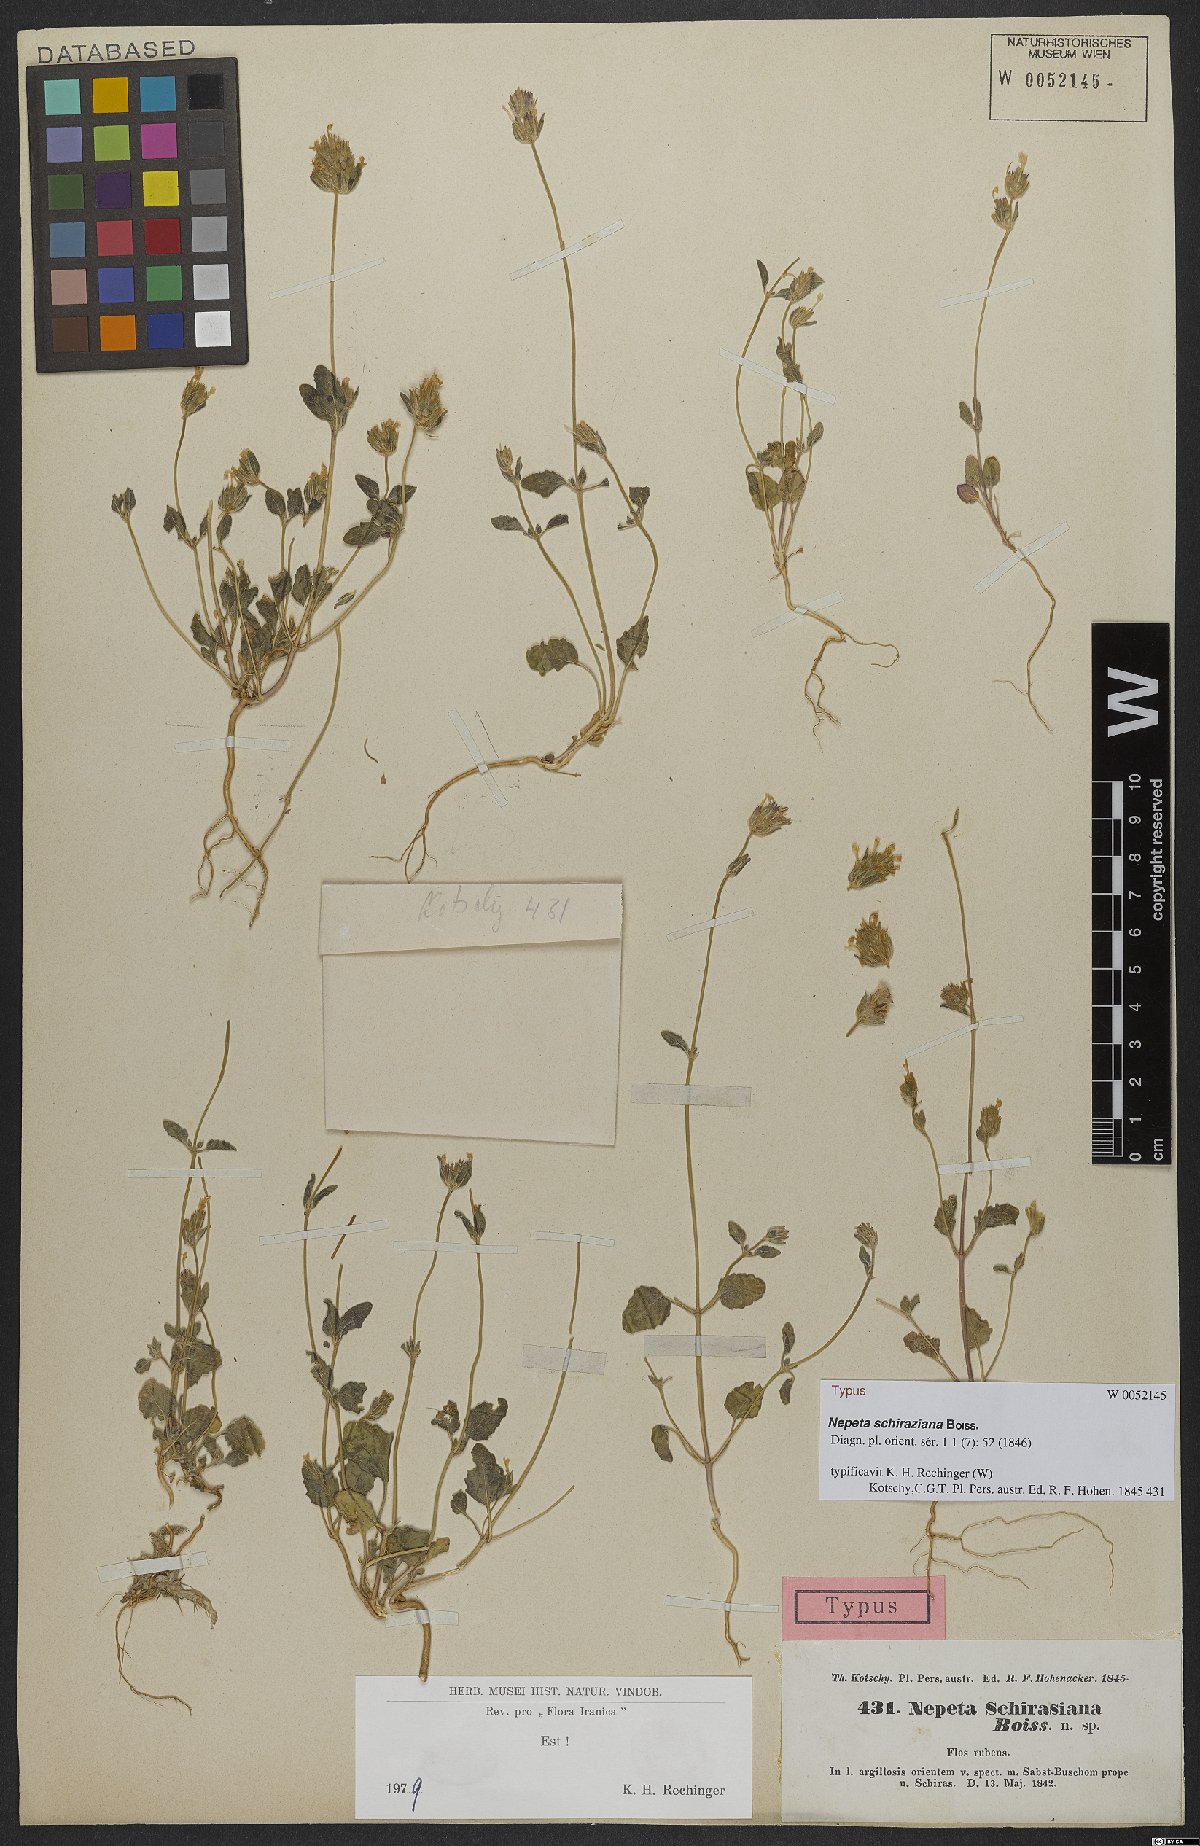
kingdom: Plantae
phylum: Tracheophyta
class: Magnoliopsida
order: Lamiales
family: Lamiaceae
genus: Nepeta
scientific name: Nepeta schiraziana
